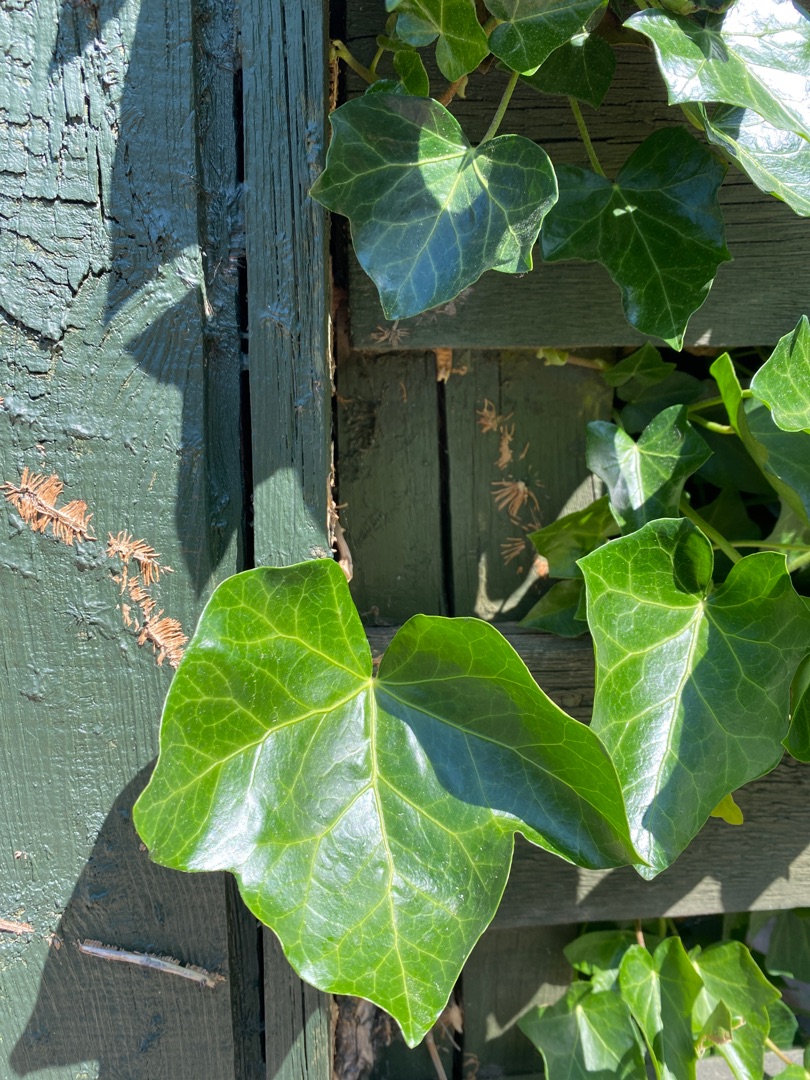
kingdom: Plantae
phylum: Tracheophyta
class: Magnoliopsida
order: Apiales
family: Araliaceae
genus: Hedera
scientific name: Hedera helix
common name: Vedbend
